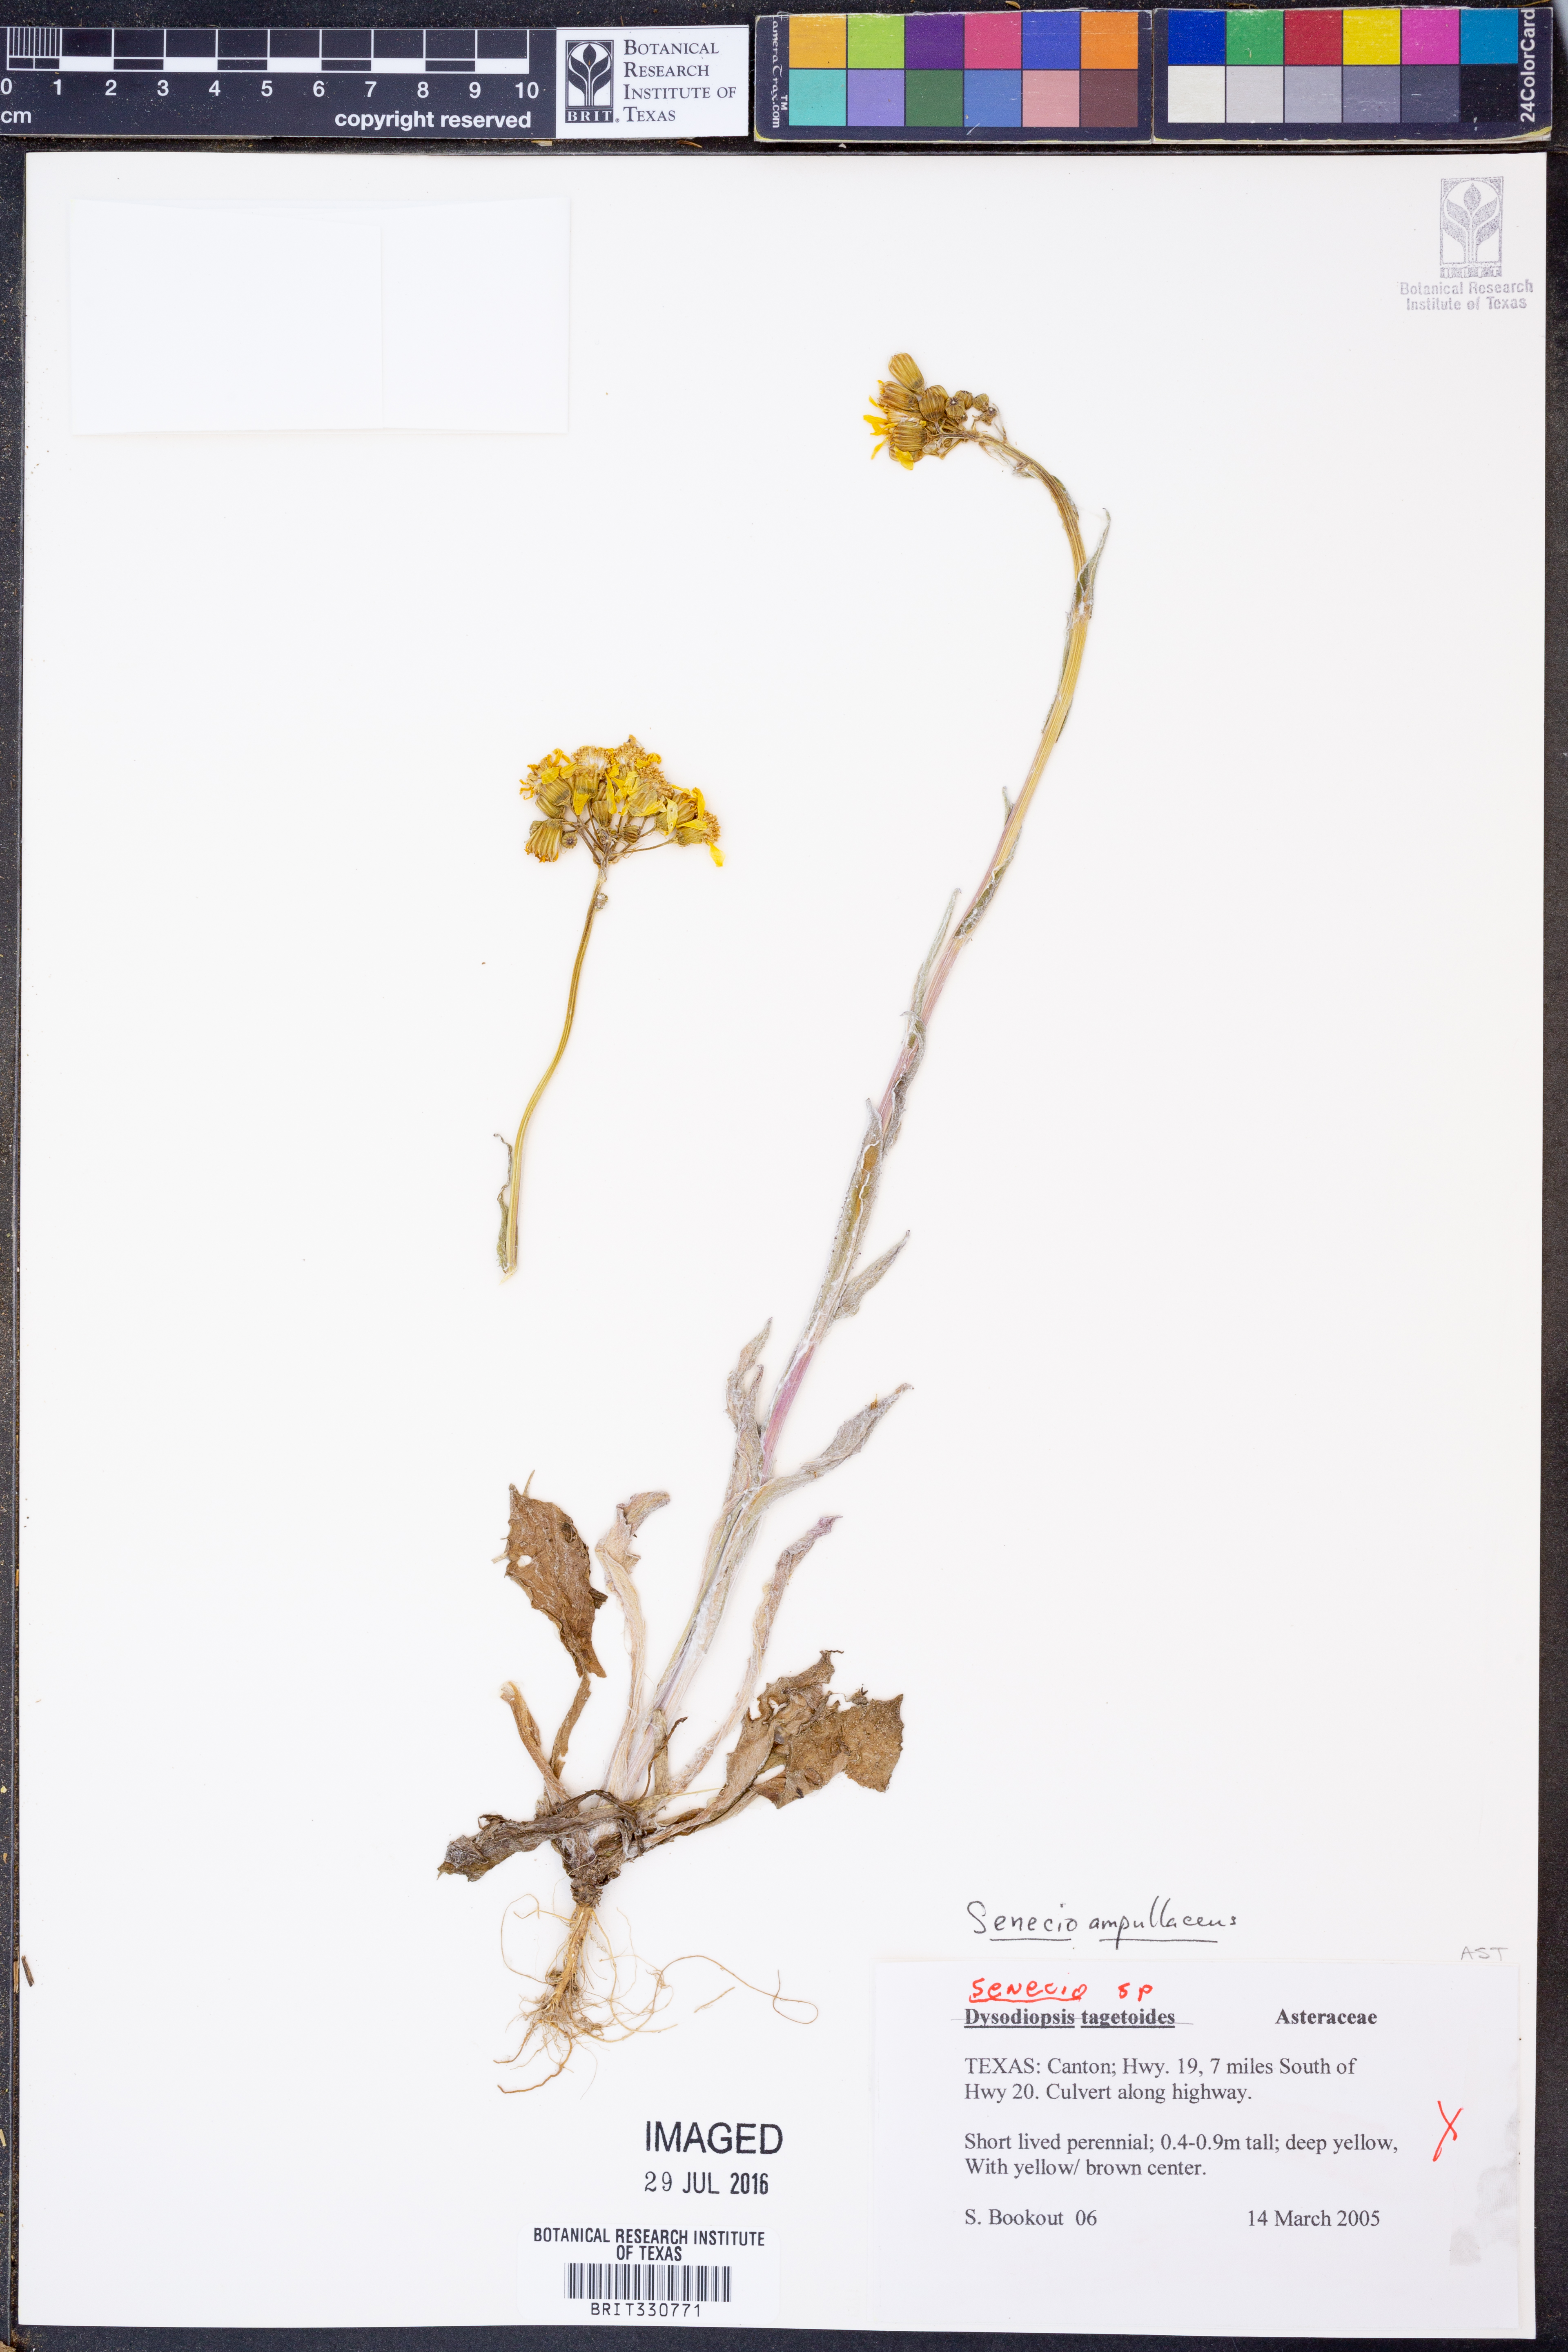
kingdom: Plantae
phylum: Tracheophyta
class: Magnoliopsida
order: Asterales
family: Asteraceae
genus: Senecio
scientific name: Senecio ampullaceus
